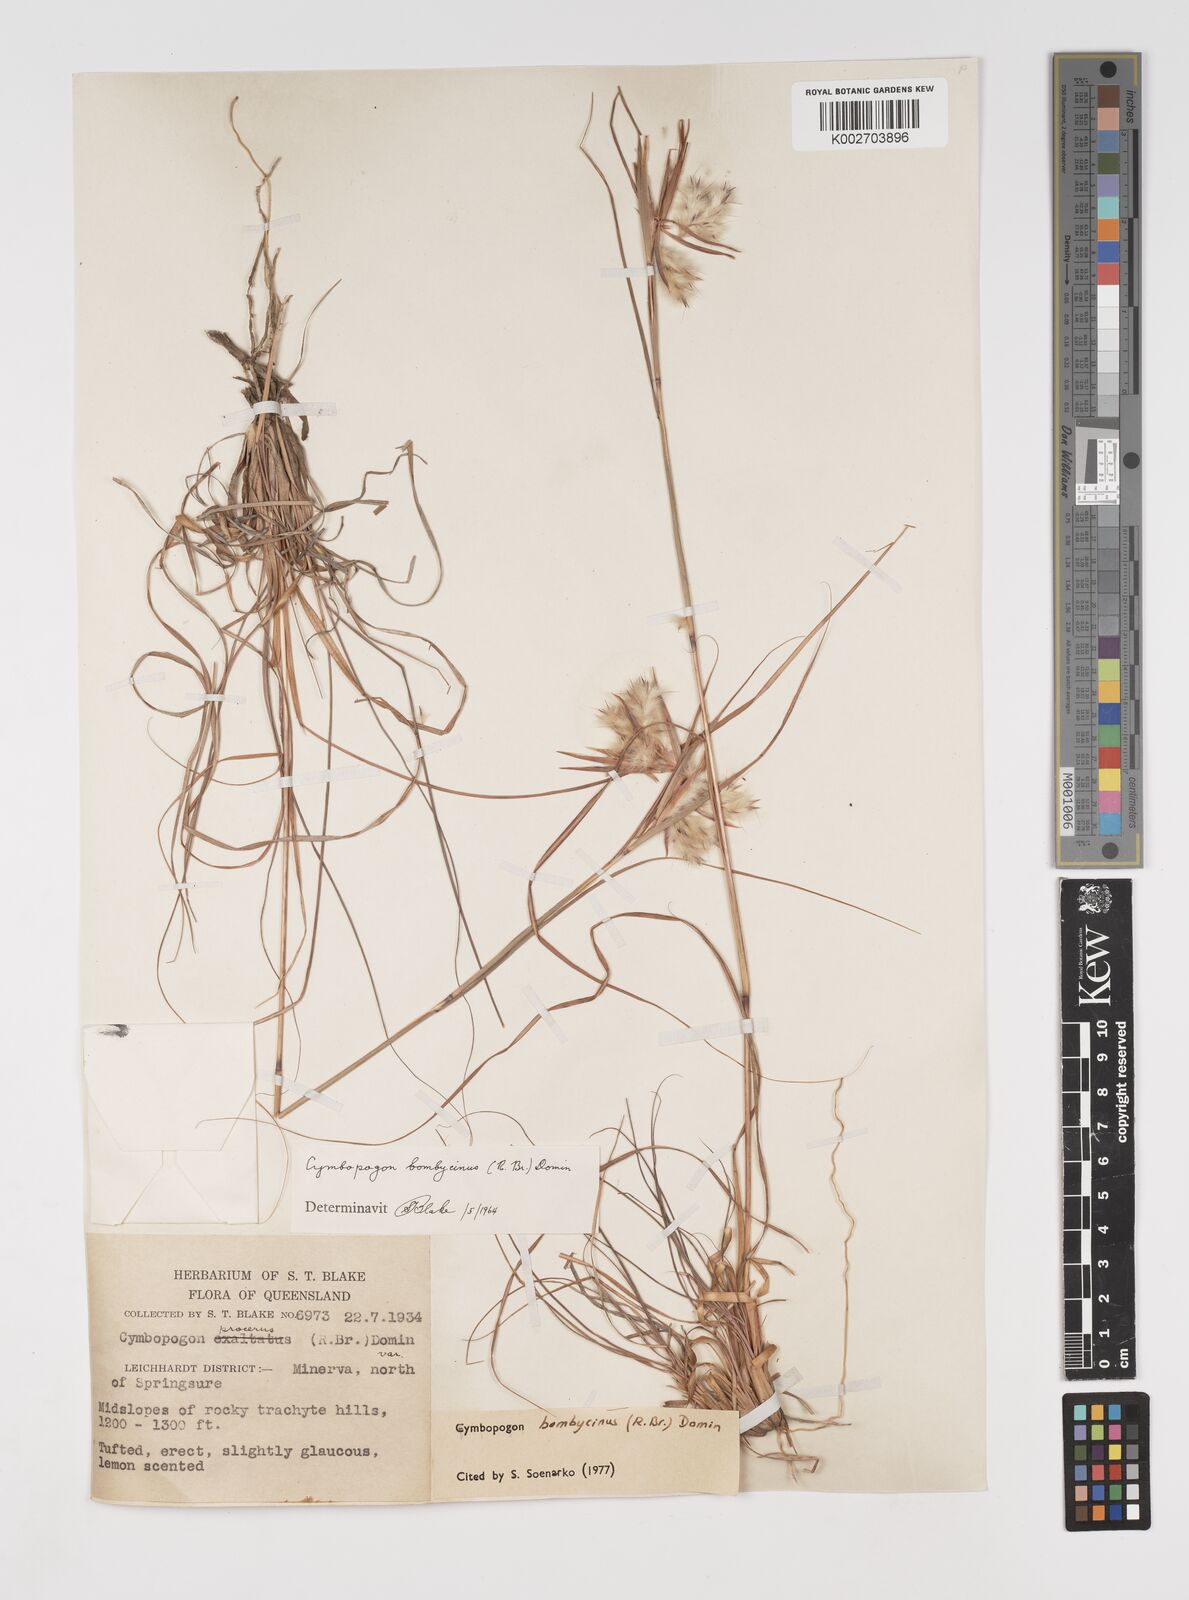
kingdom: Plantae
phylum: Tracheophyta
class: Liliopsida
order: Poales
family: Poaceae
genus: Cymbopogon
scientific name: Cymbopogon bombycinus
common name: Citronella grass
